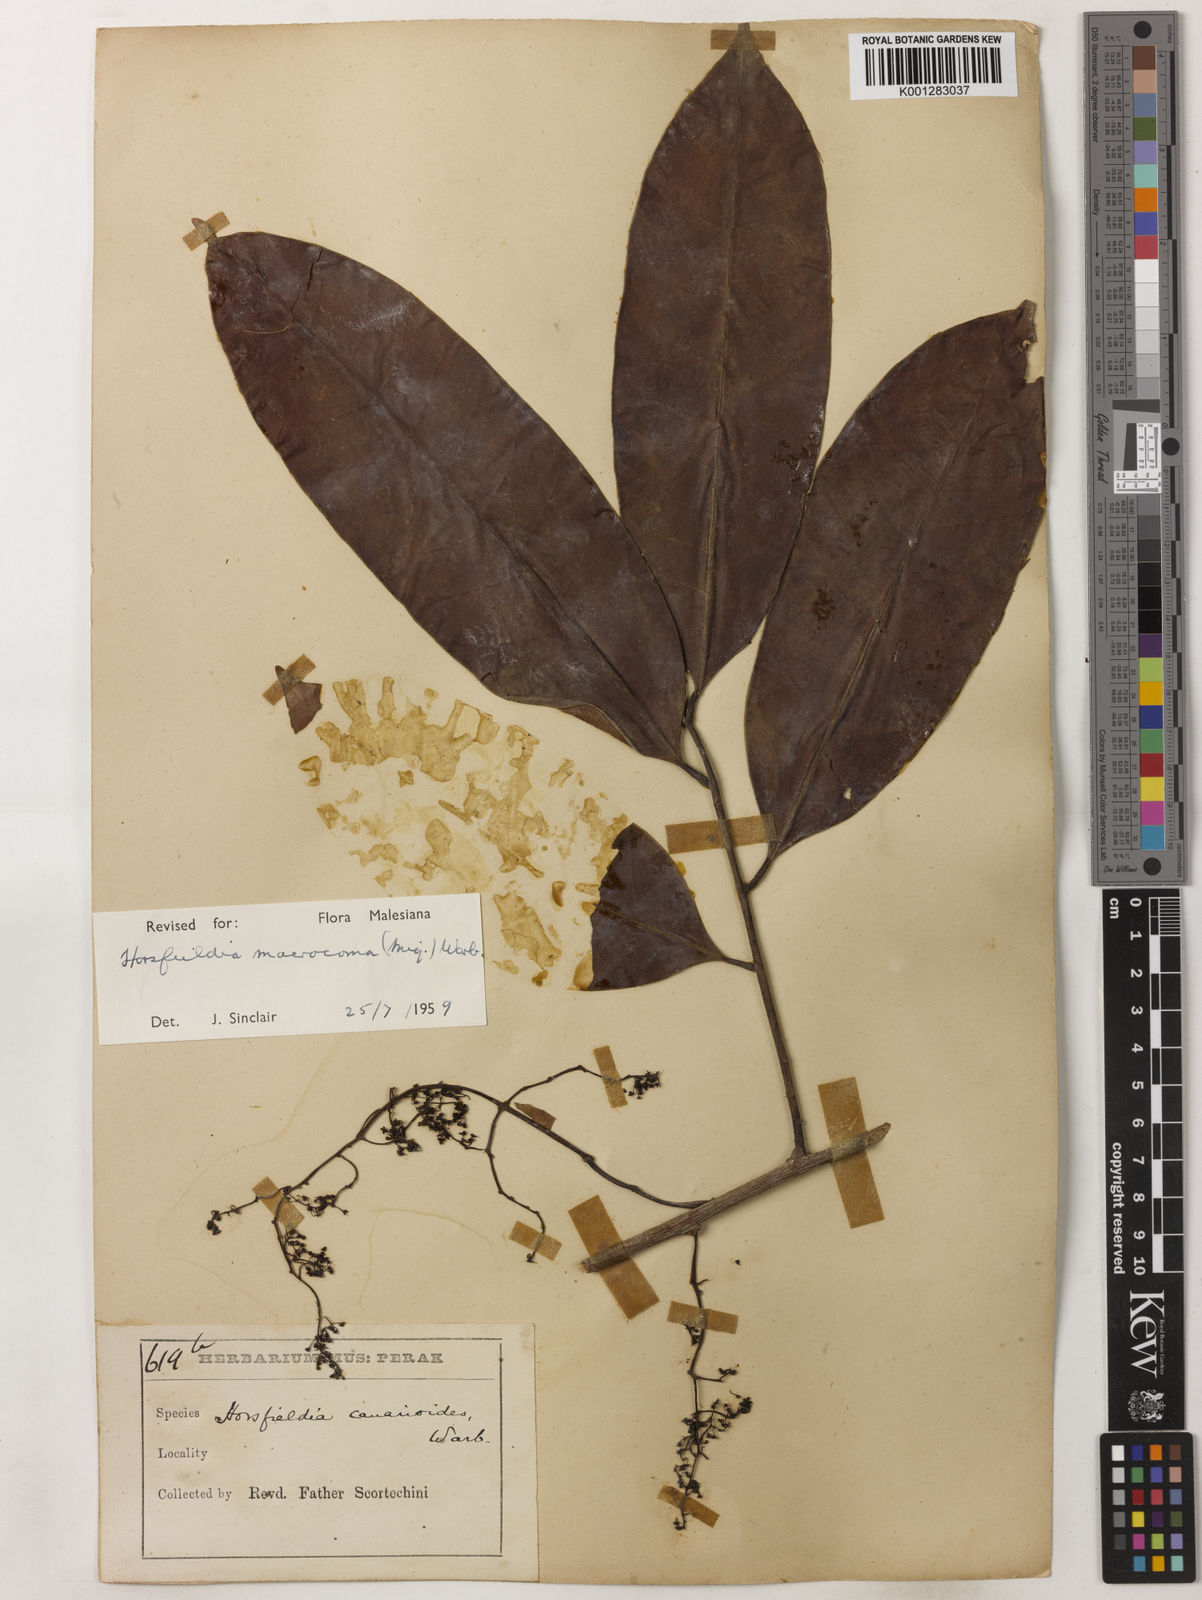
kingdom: Plantae
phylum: Tracheophyta
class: Magnoliopsida
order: Magnoliales
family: Myristicaceae
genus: Endocomia
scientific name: Endocomia canarioides
